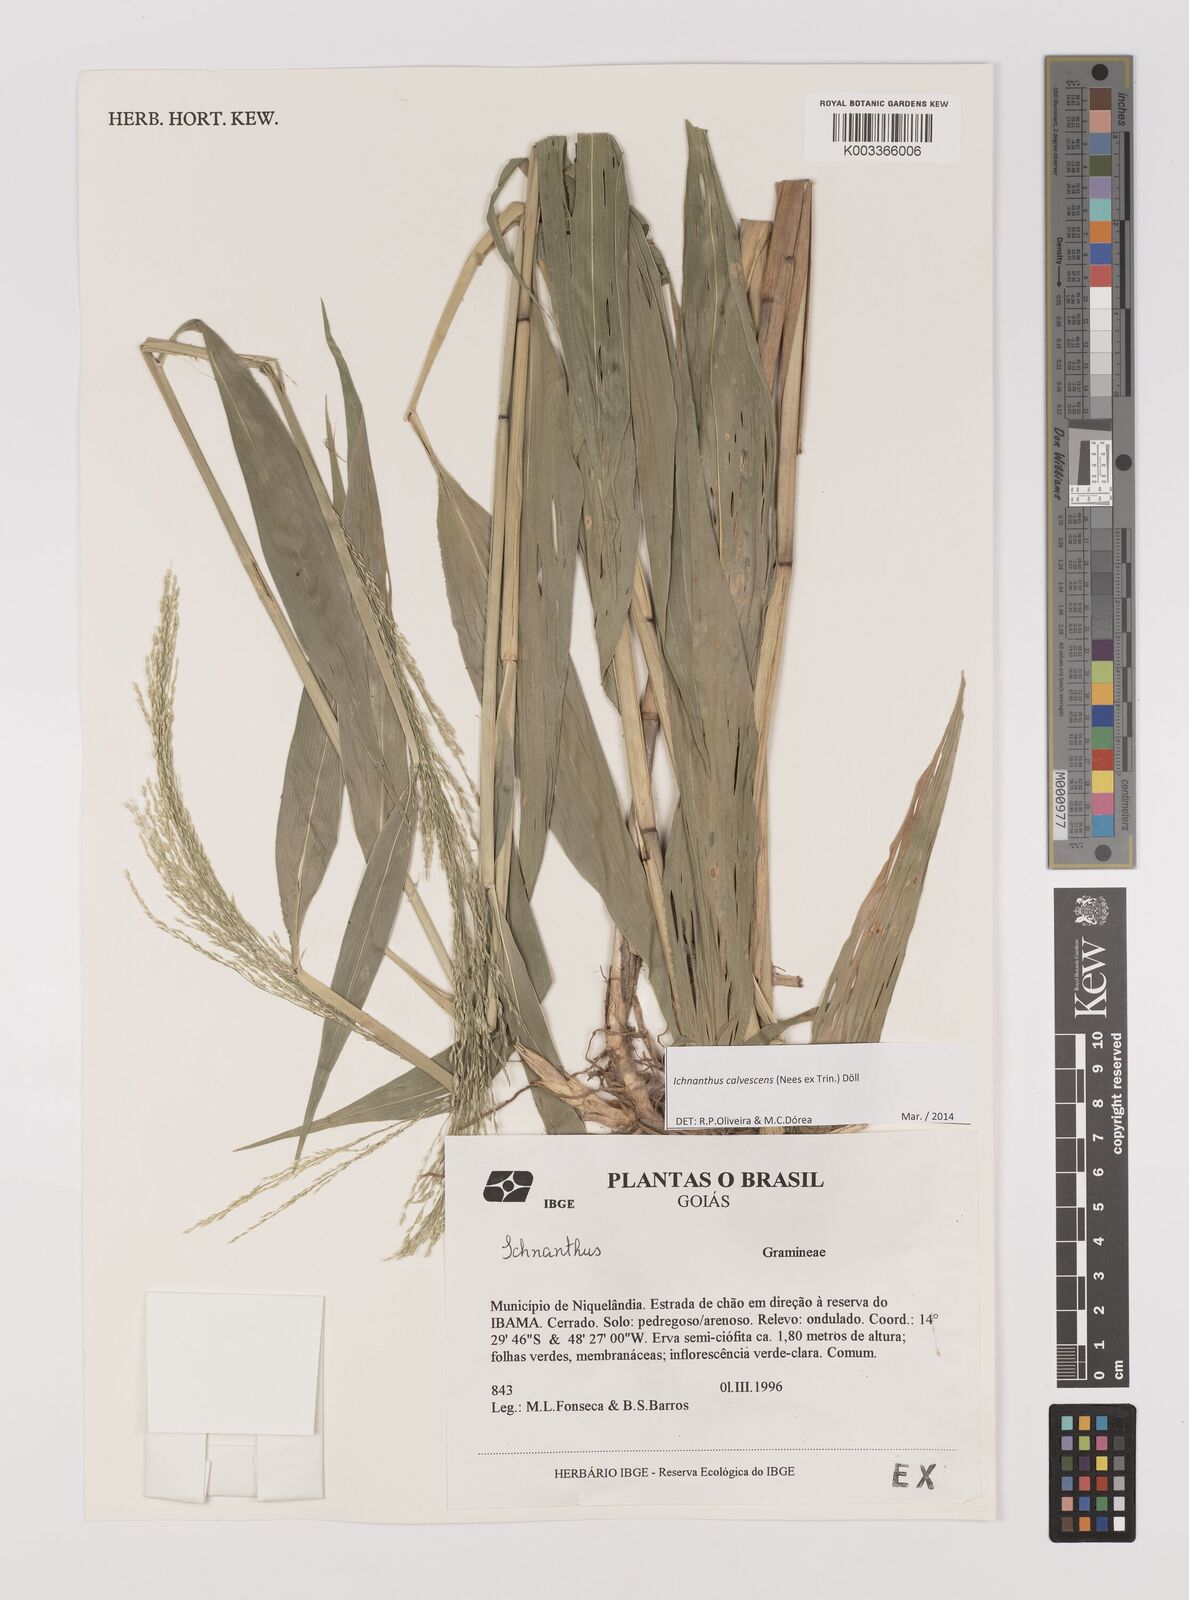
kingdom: Plantae
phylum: Tracheophyta
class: Liliopsida
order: Poales
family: Poaceae
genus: Ichnanthus
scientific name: Ichnanthus calvescens
